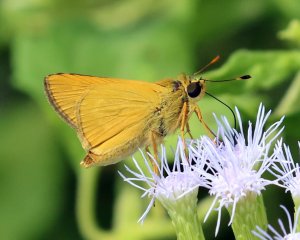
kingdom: Animalia
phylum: Arthropoda
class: Insecta
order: Lepidoptera
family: Hesperiidae
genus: Mellana
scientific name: Mellana eulogius
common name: Common Mellana
